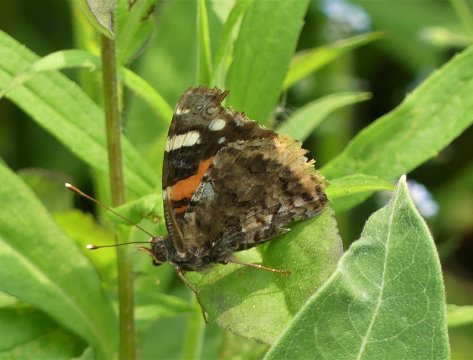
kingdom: Animalia
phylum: Arthropoda
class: Insecta
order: Lepidoptera
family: Nymphalidae
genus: Vanessa
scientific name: Vanessa atalanta
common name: Red Admiral
